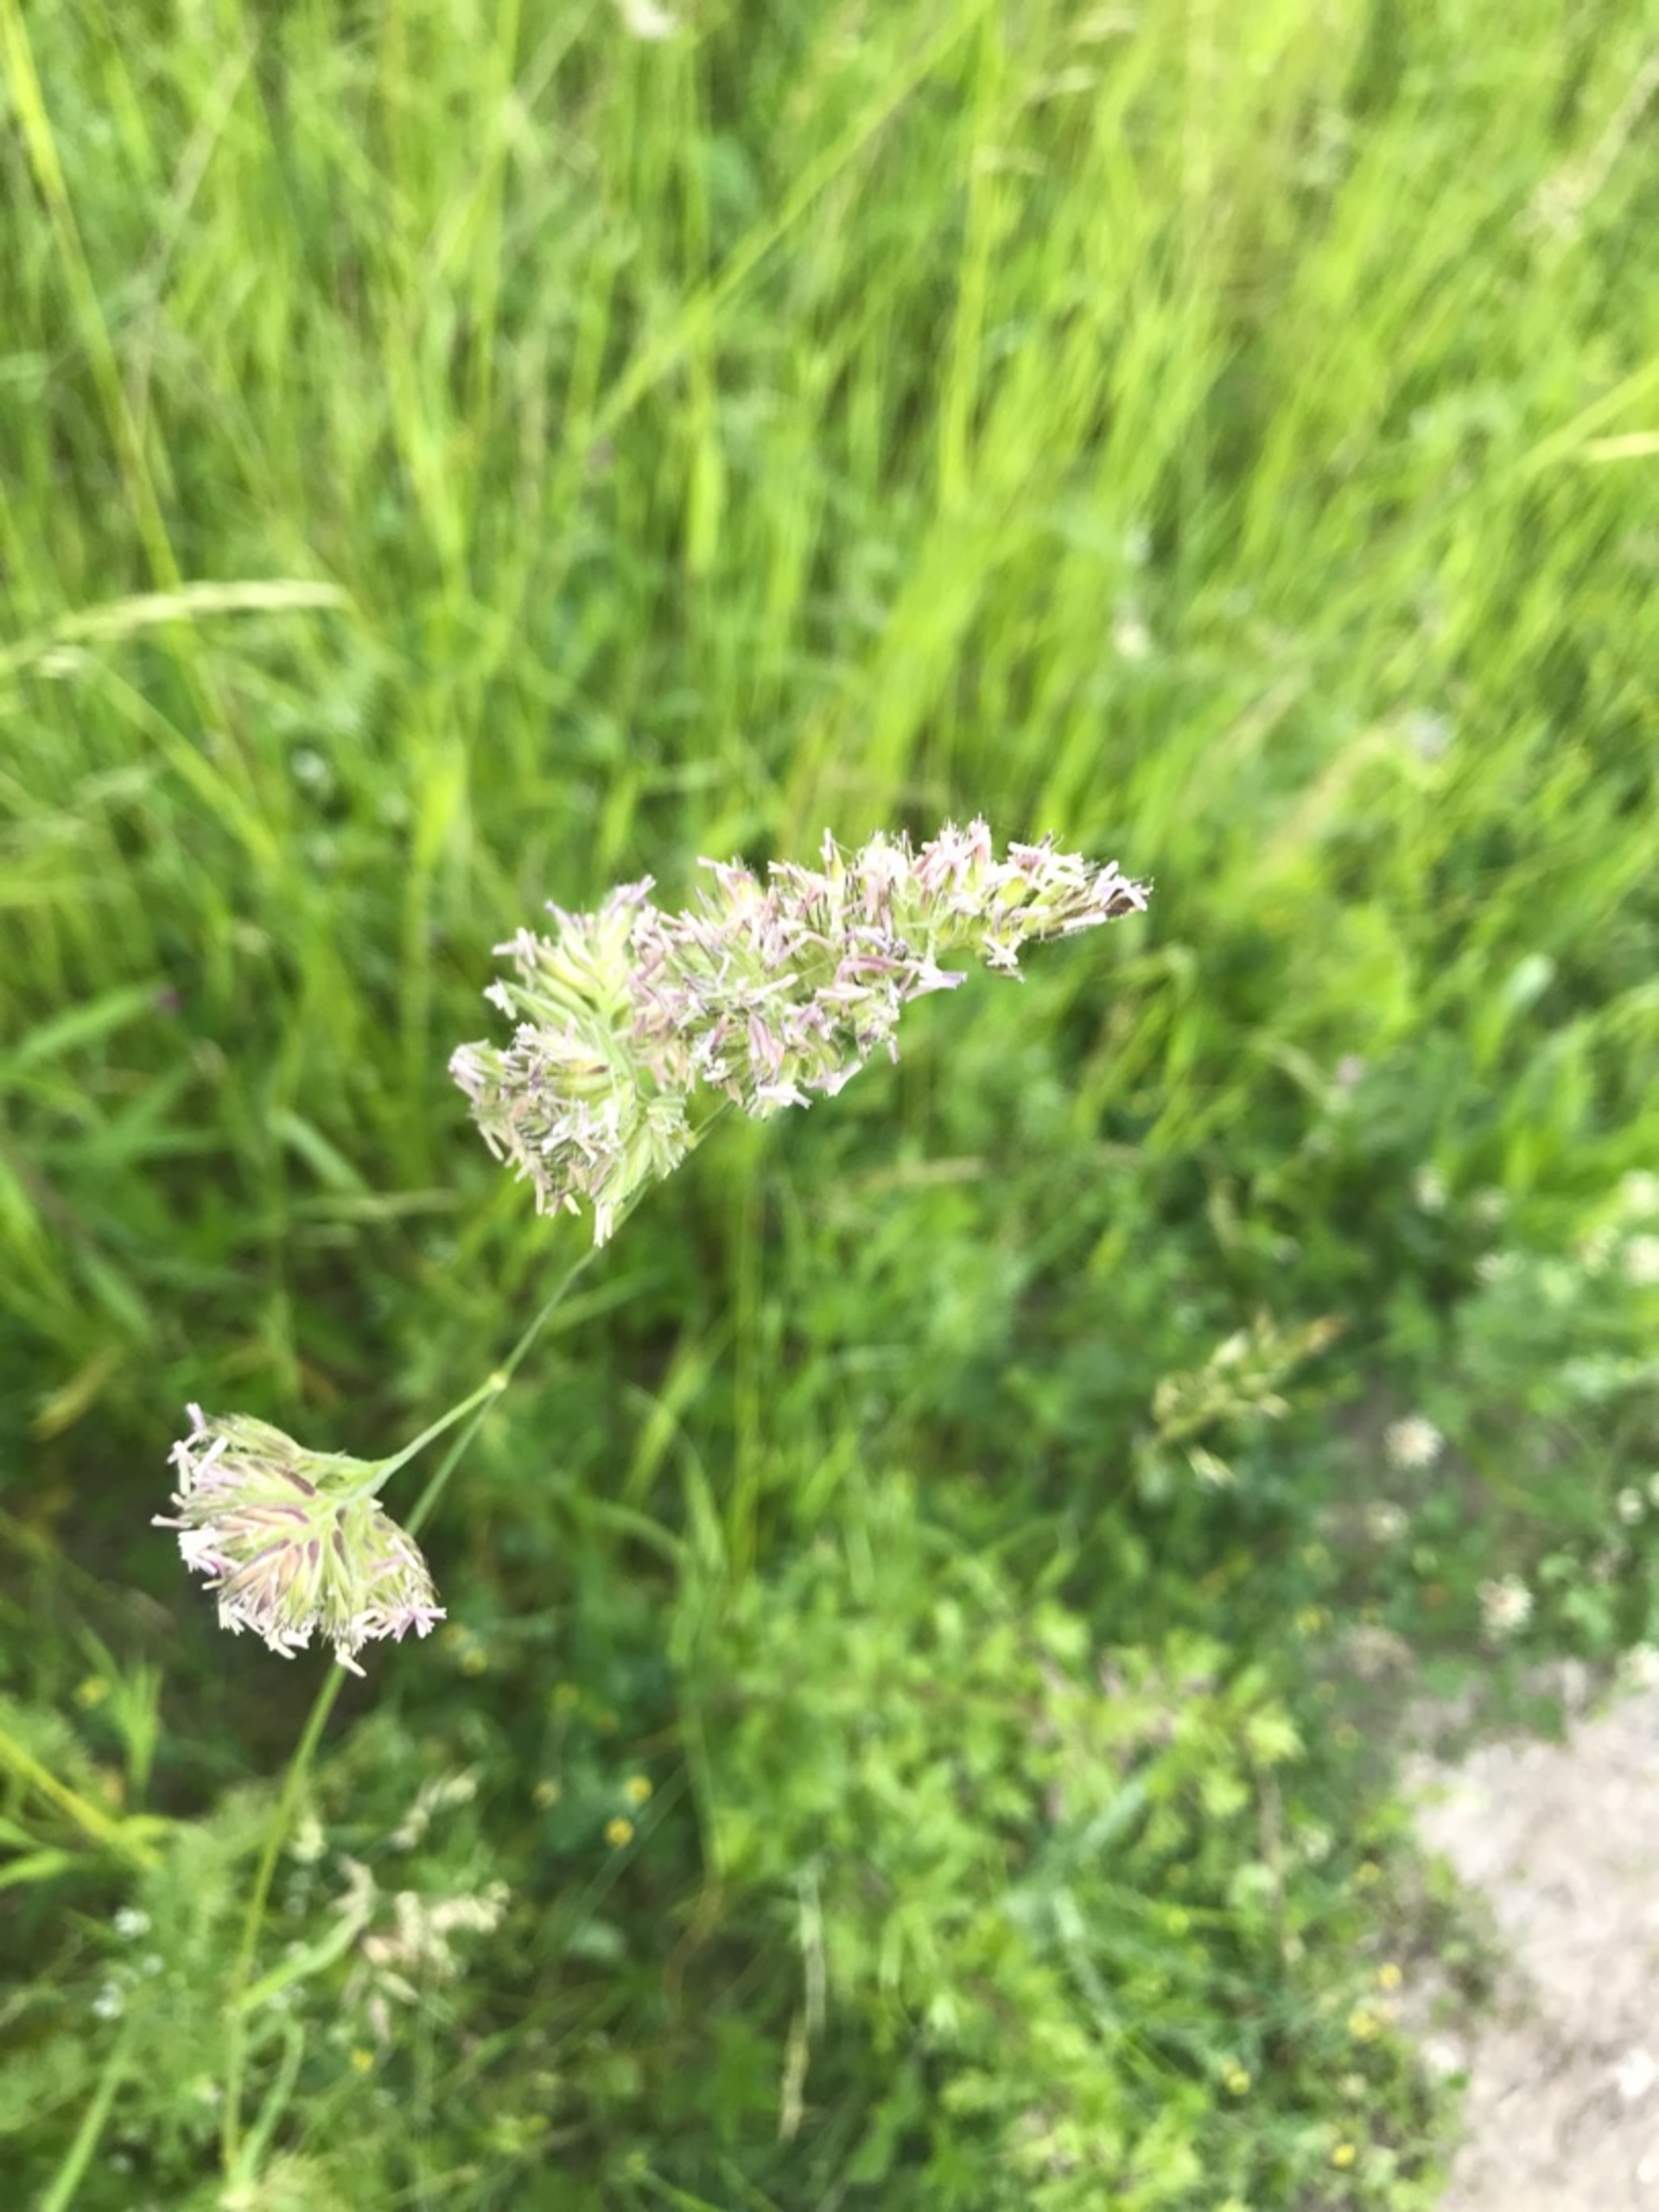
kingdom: Plantae
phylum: Tracheophyta
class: Liliopsida
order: Poales
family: Poaceae
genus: Dactylis
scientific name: Dactylis glomerata
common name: Almindelig hundegræs
